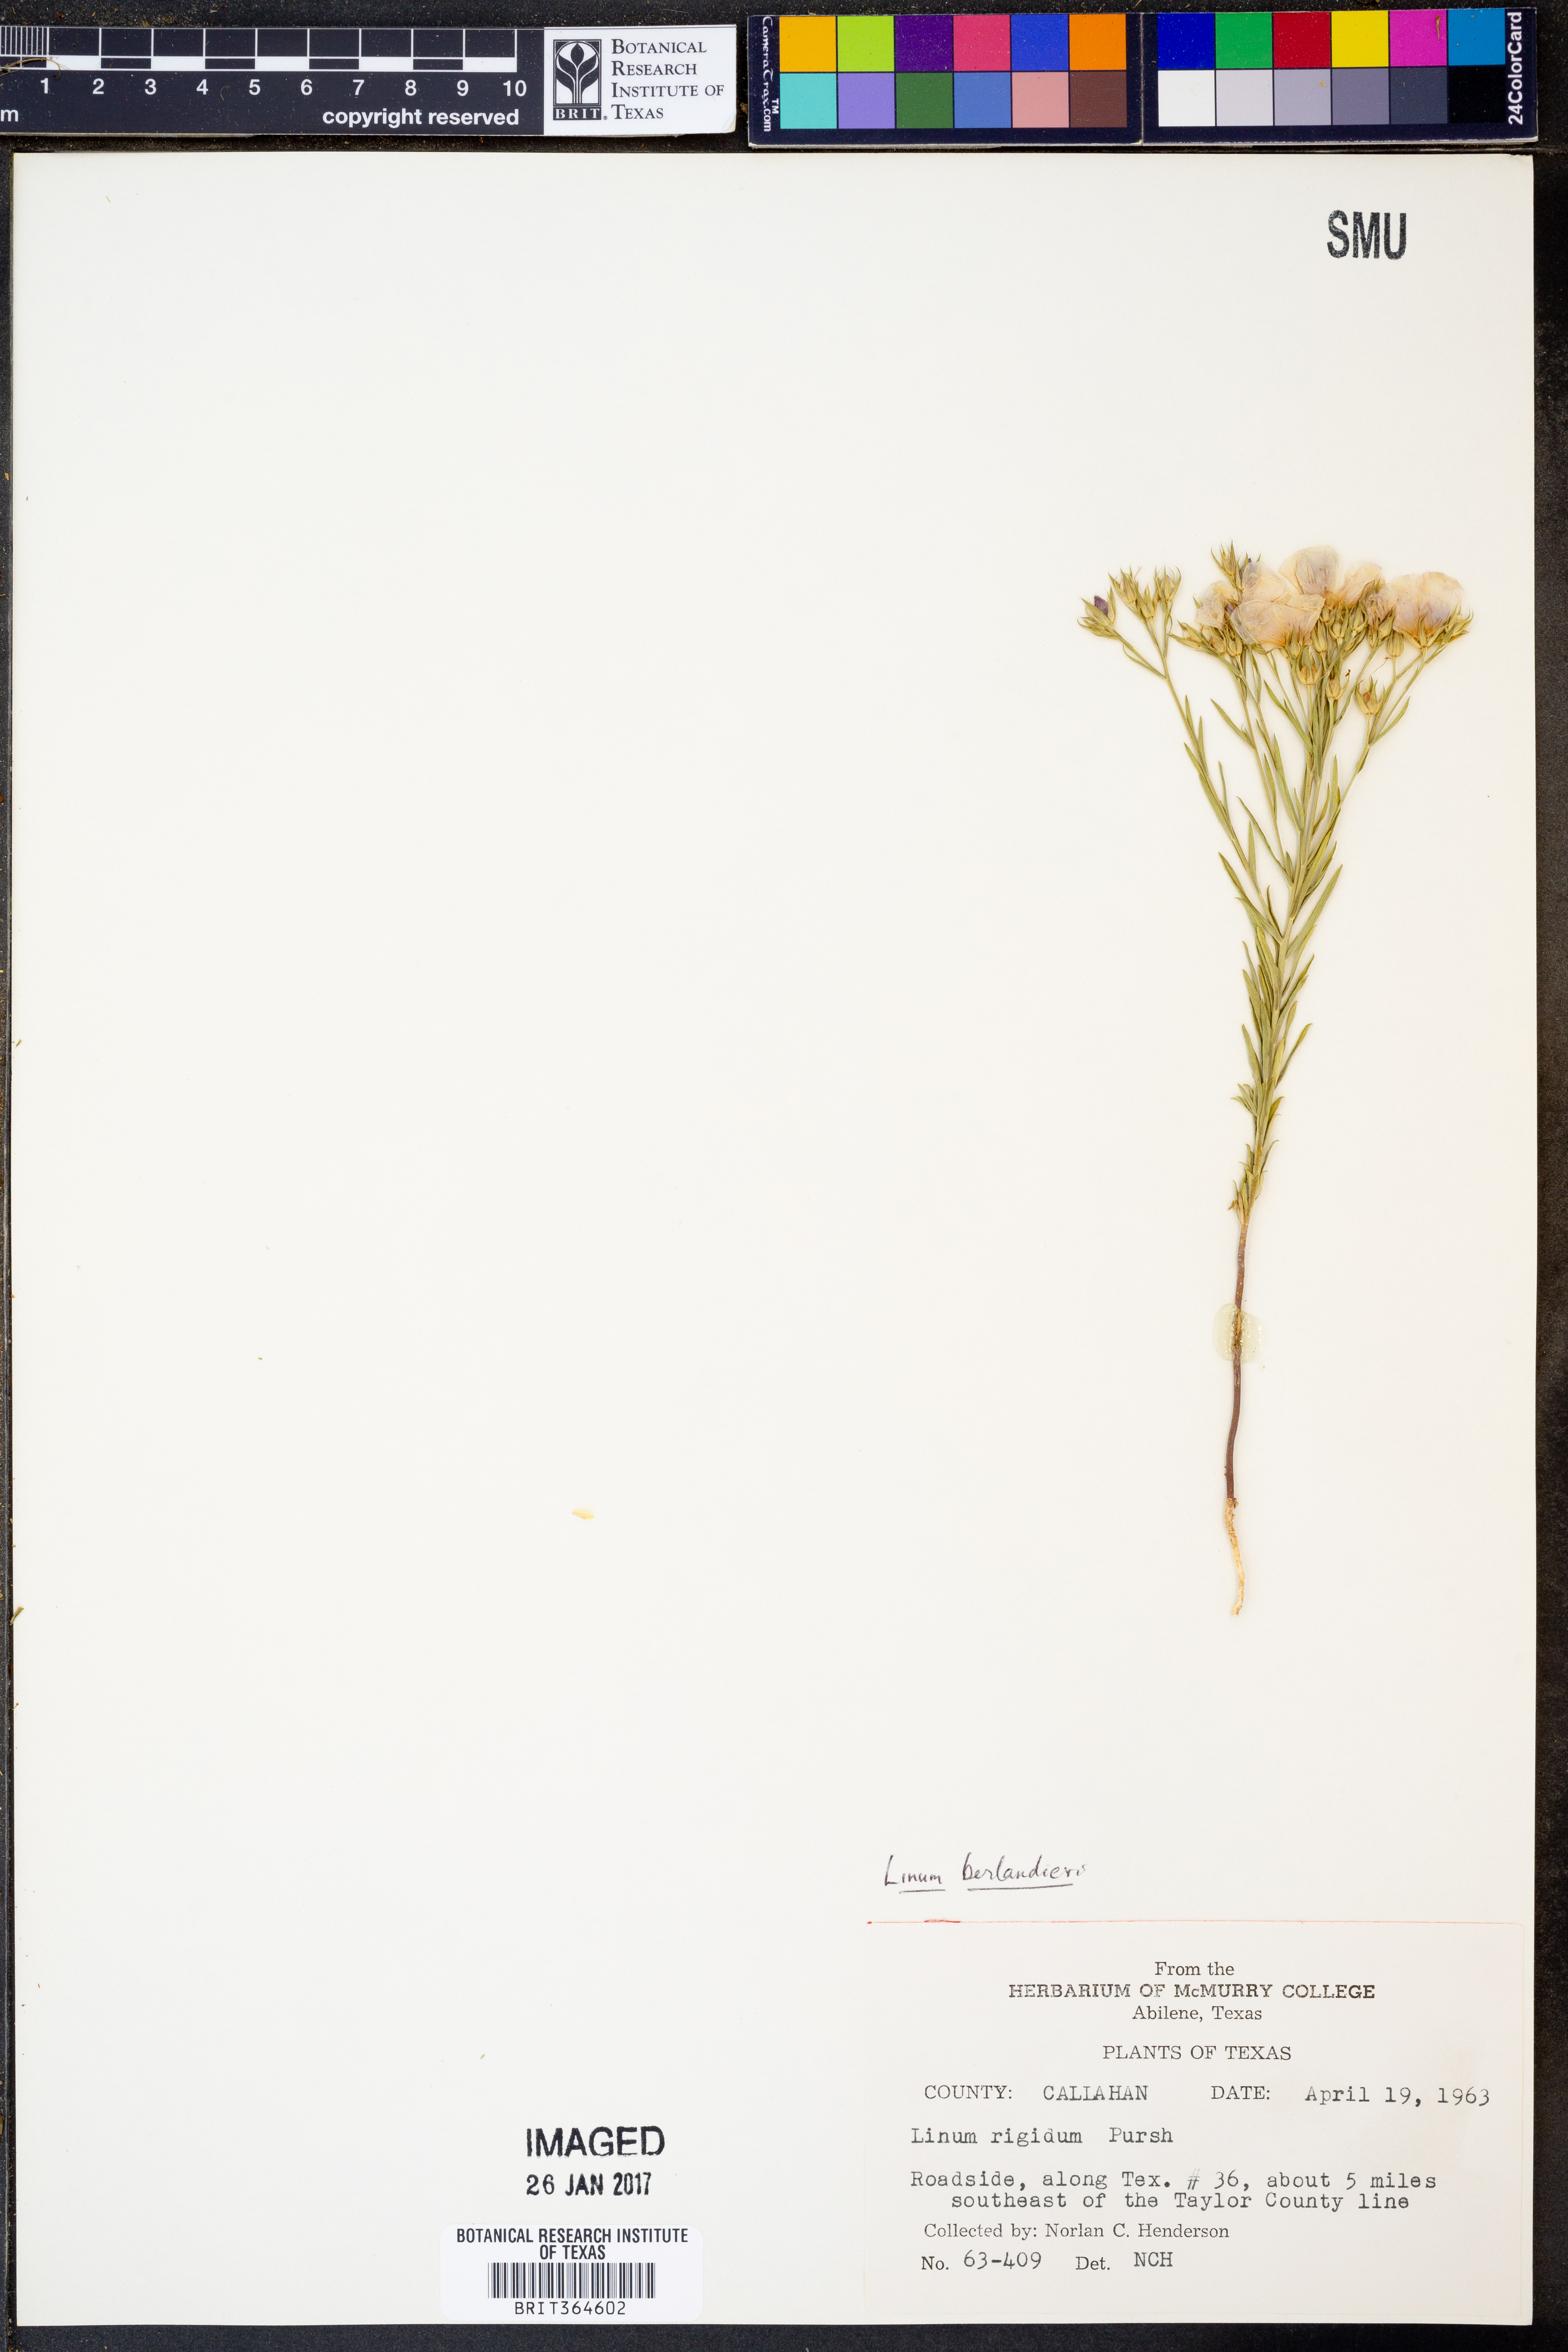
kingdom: Plantae
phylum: Tracheophyta
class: Magnoliopsida
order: Malpighiales
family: Linaceae
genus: Linum
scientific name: Linum berlandieri
